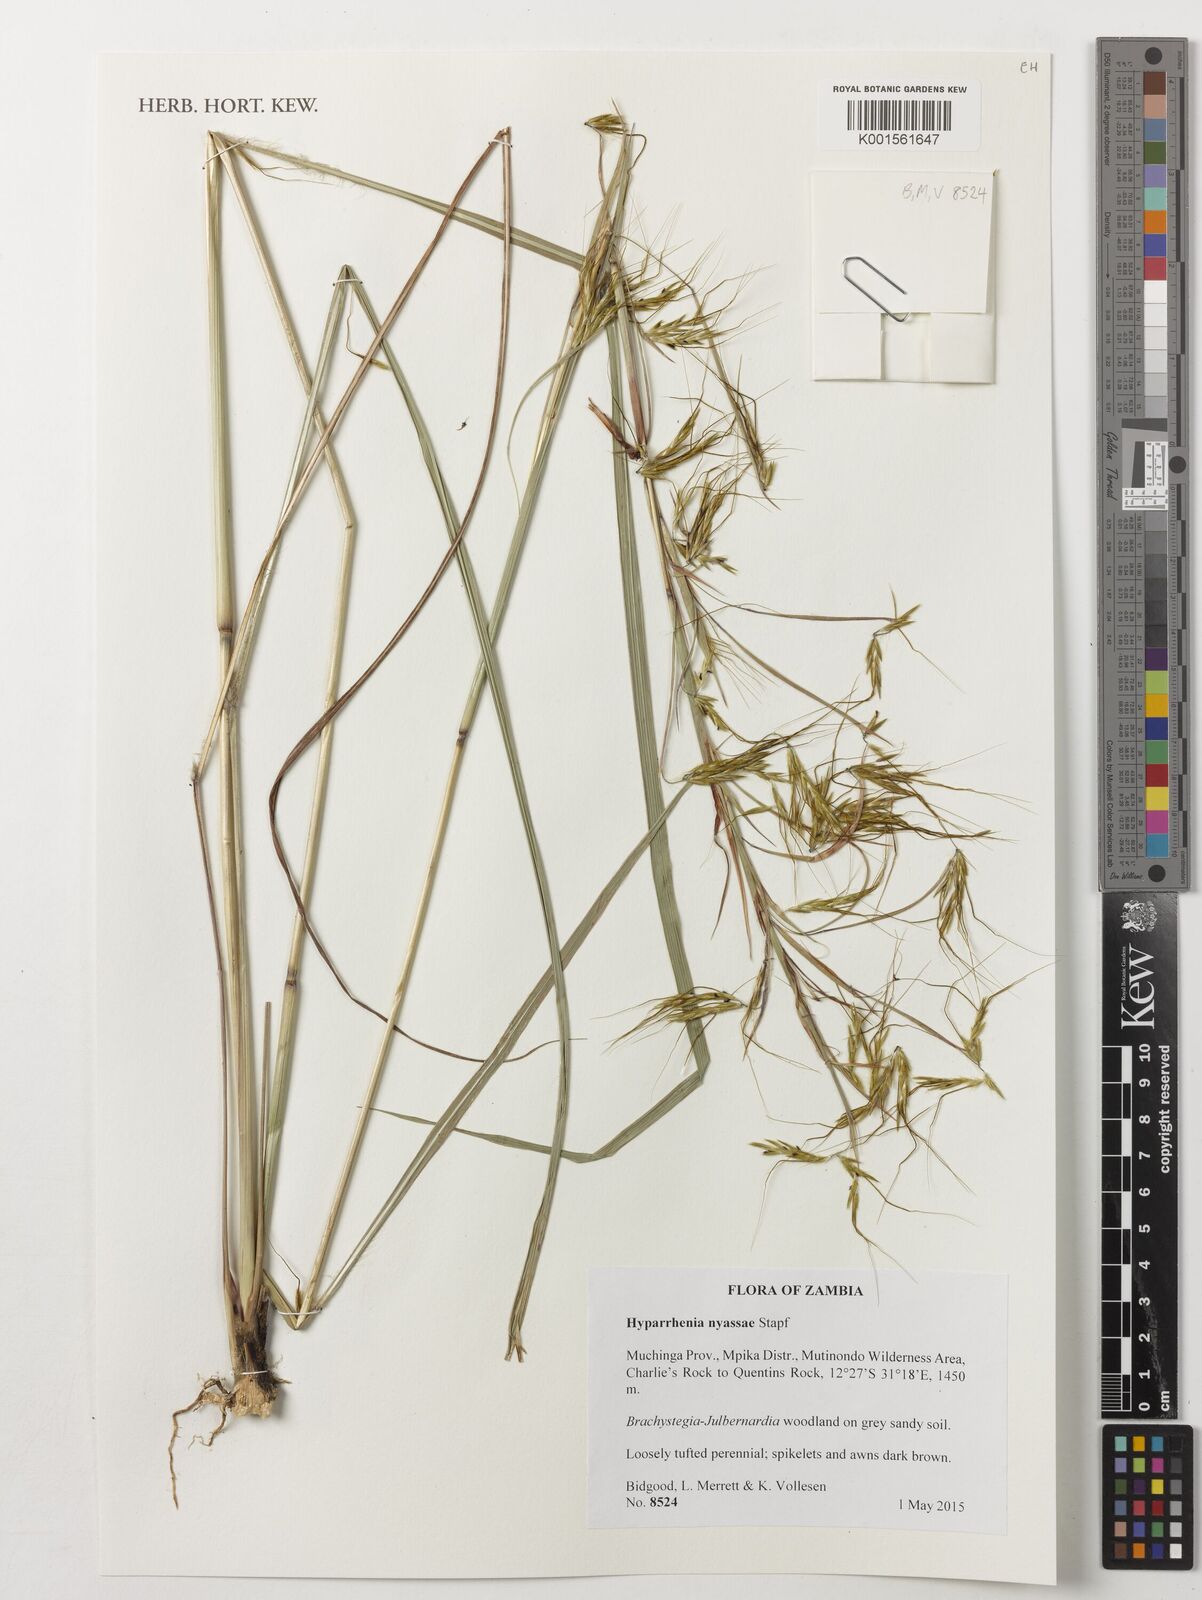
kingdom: Plantae
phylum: Tracheophyta
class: Liliopsida
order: Poales
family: Poaceae
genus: Hyparrhenia
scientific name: Hyparrhenia nyassae
